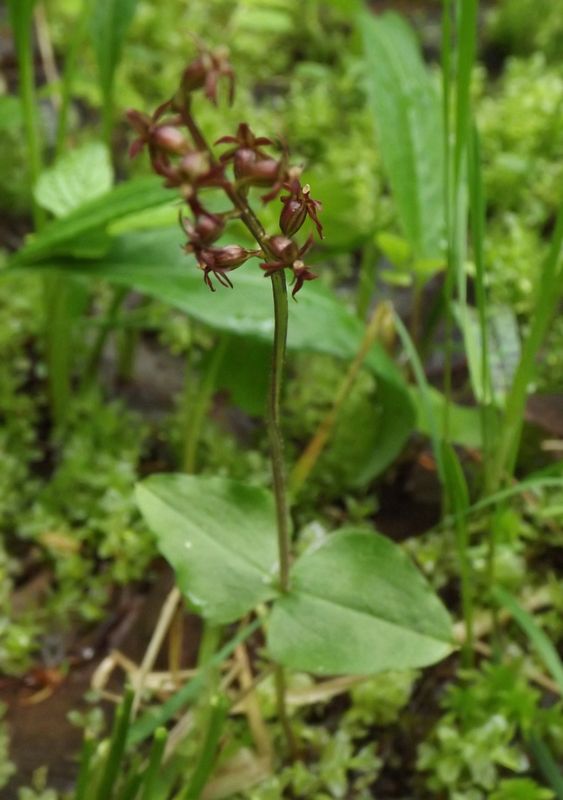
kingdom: Plantae
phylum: Tracheophyta
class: Liliopsida
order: Asparagales
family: Orchidaceae
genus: Neottia
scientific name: Neottia cordata
